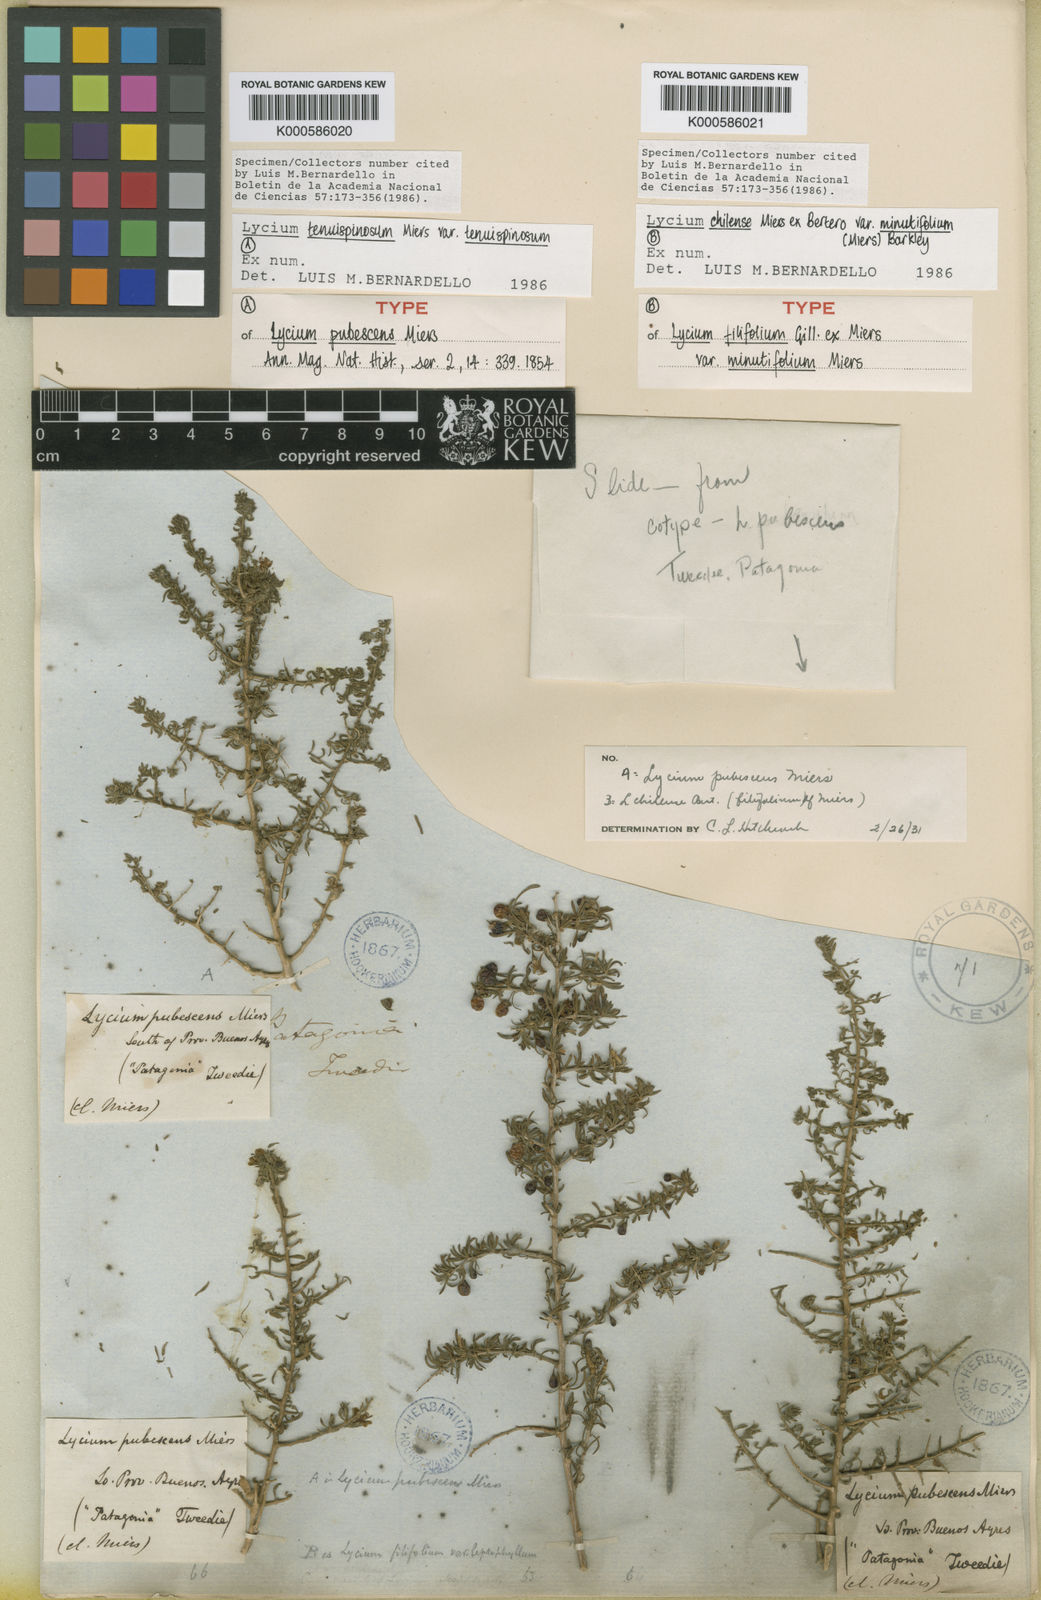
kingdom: Plantae
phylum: Tracheophyta
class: Magnoliopsida
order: Solanales
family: Solanaceae
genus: Lycium
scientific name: Lycium tenuispinosum
